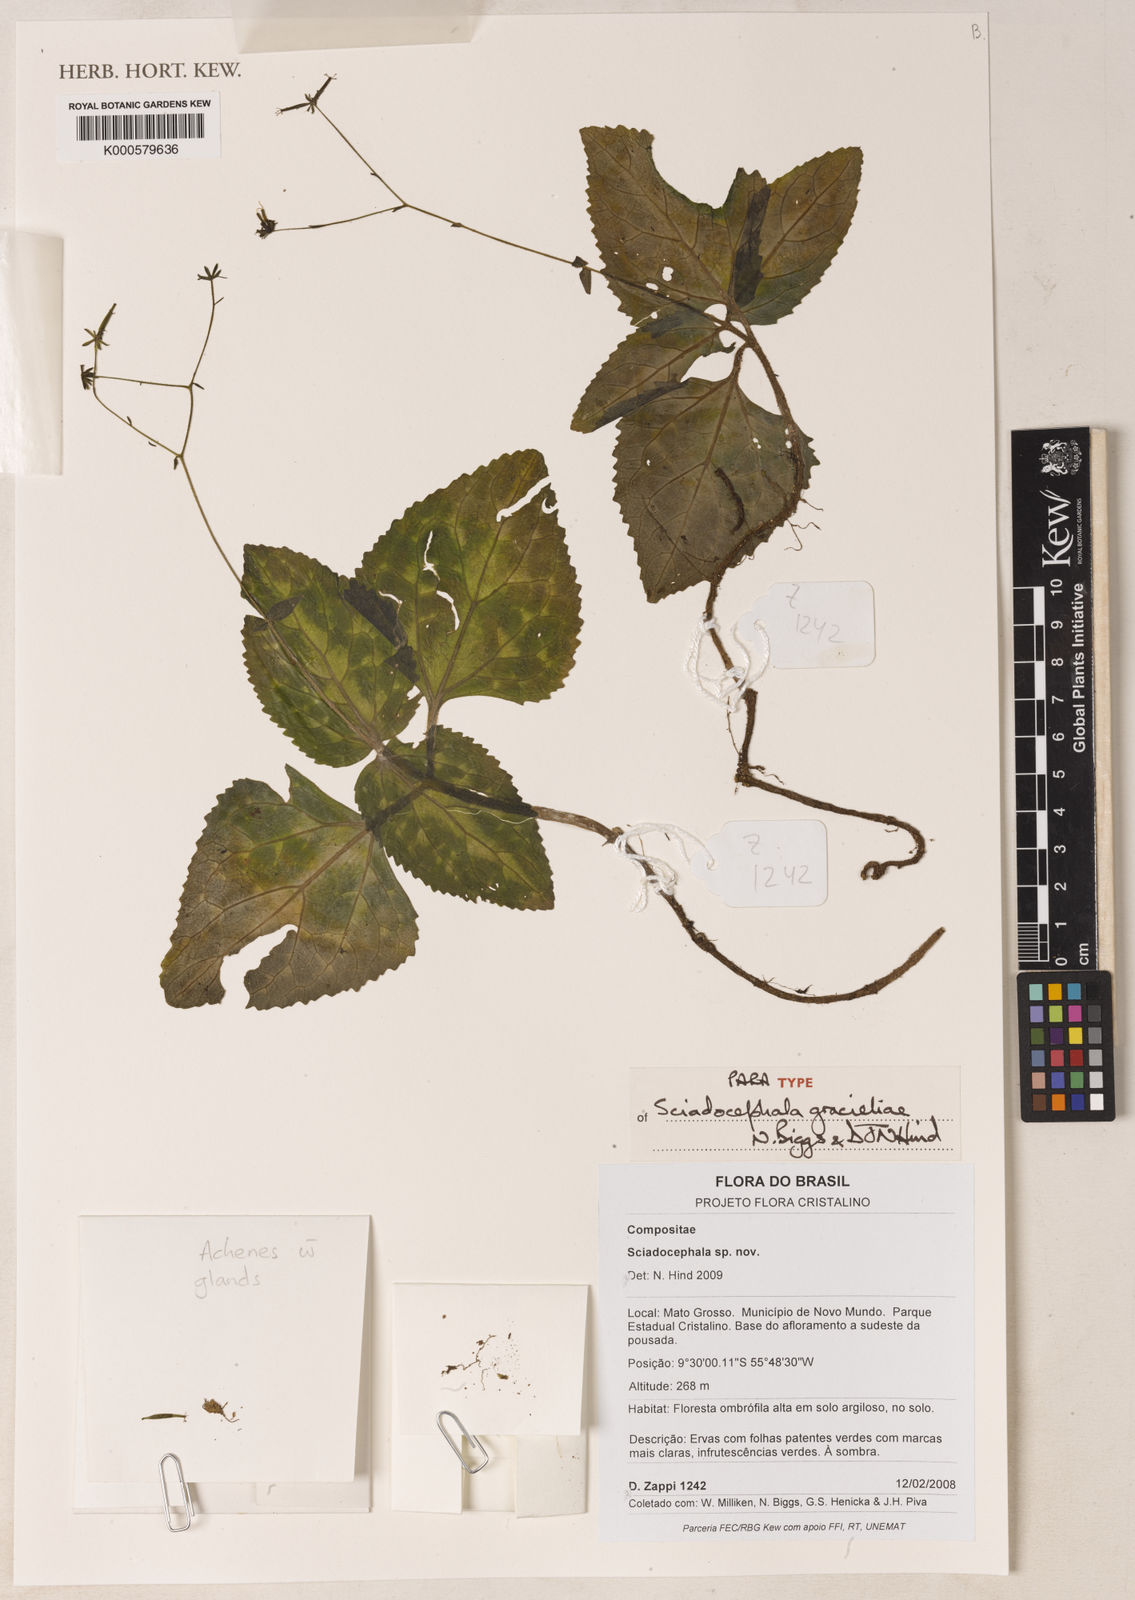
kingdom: Plantae
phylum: Tracheophyta
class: Magnoliopsida
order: Asterales
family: Asteraceae
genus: Sciadocephala
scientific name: Sciadocephala gracieliae
